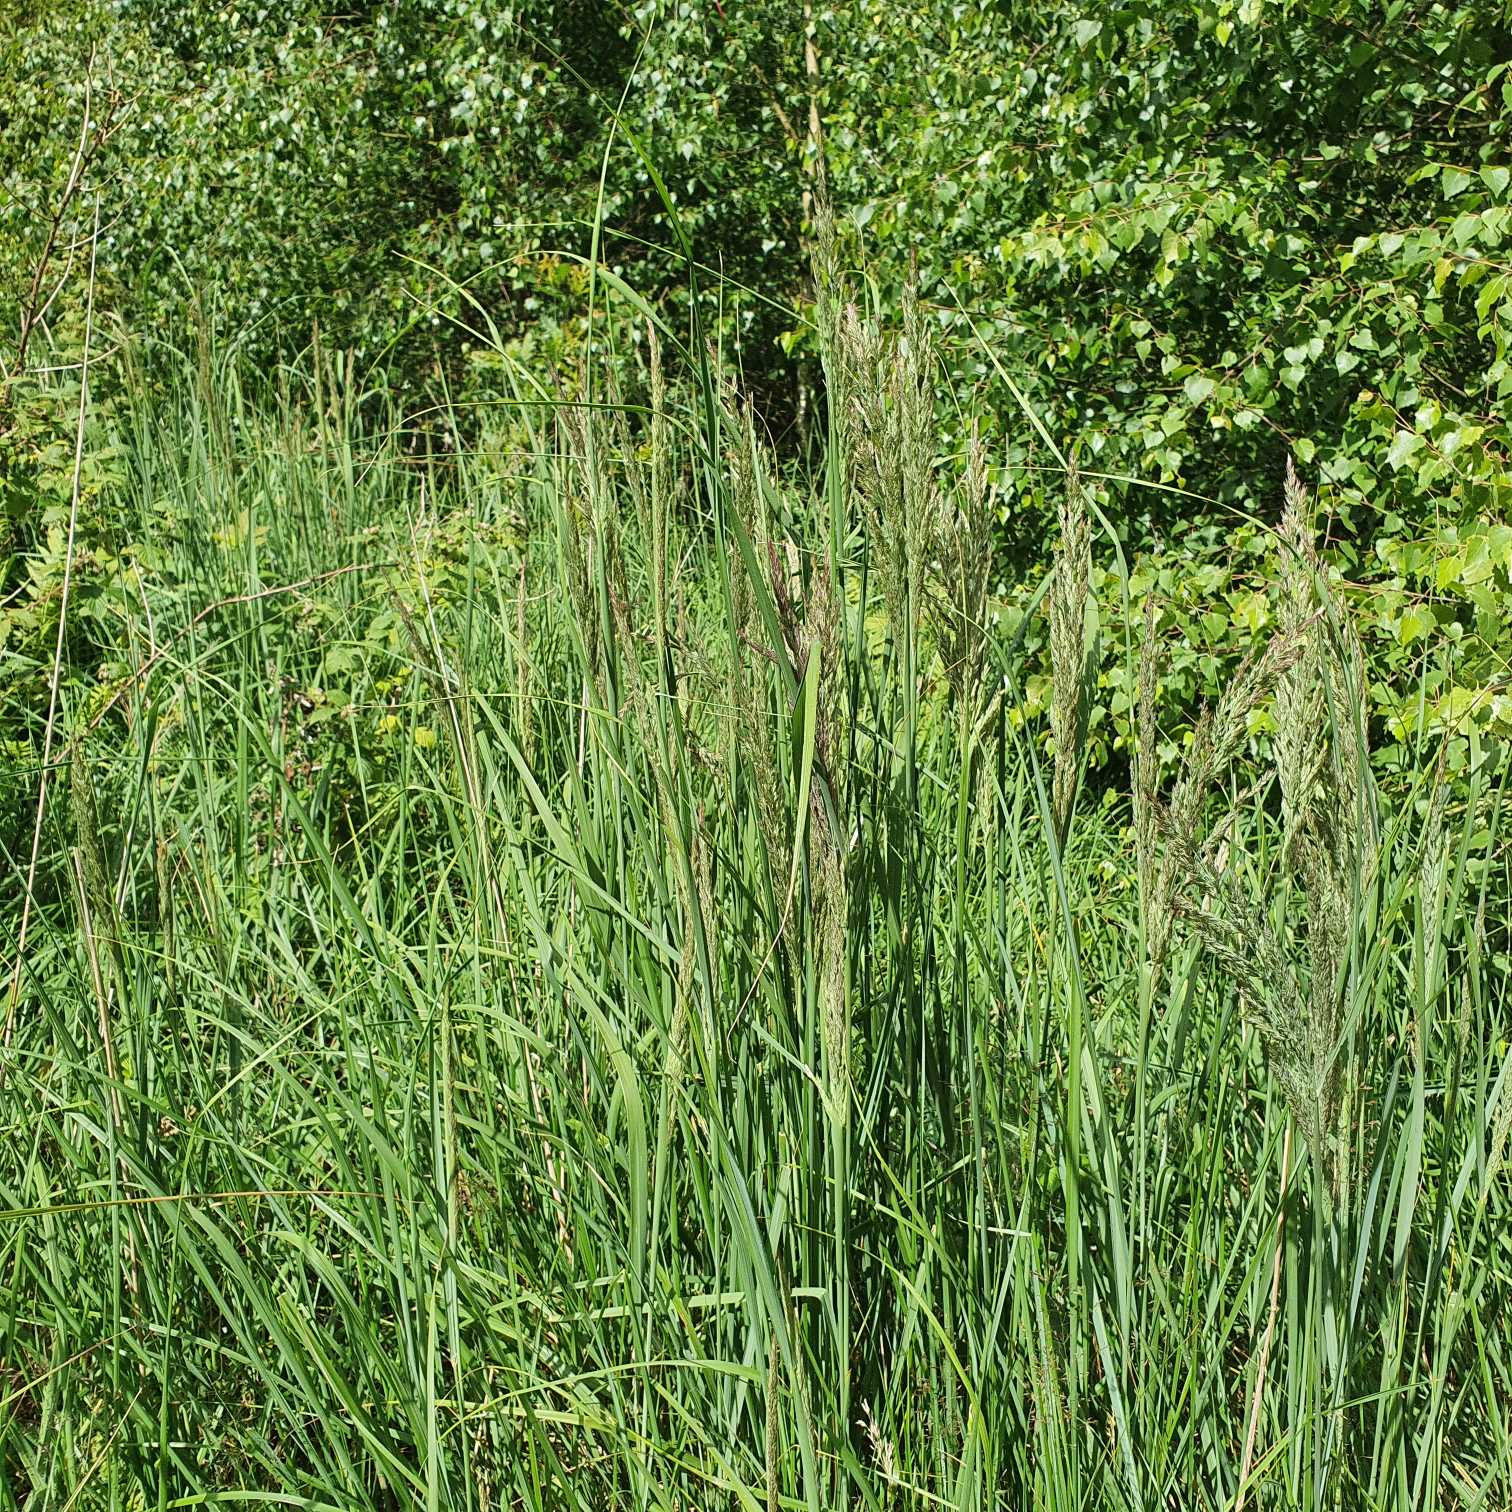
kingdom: Plantae
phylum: Tracheophyta
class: Liliopsida
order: Poales
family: Poaceae
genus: Calamagrostis
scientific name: Calamagrostis epigejos
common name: Bjerg-rørhvene
